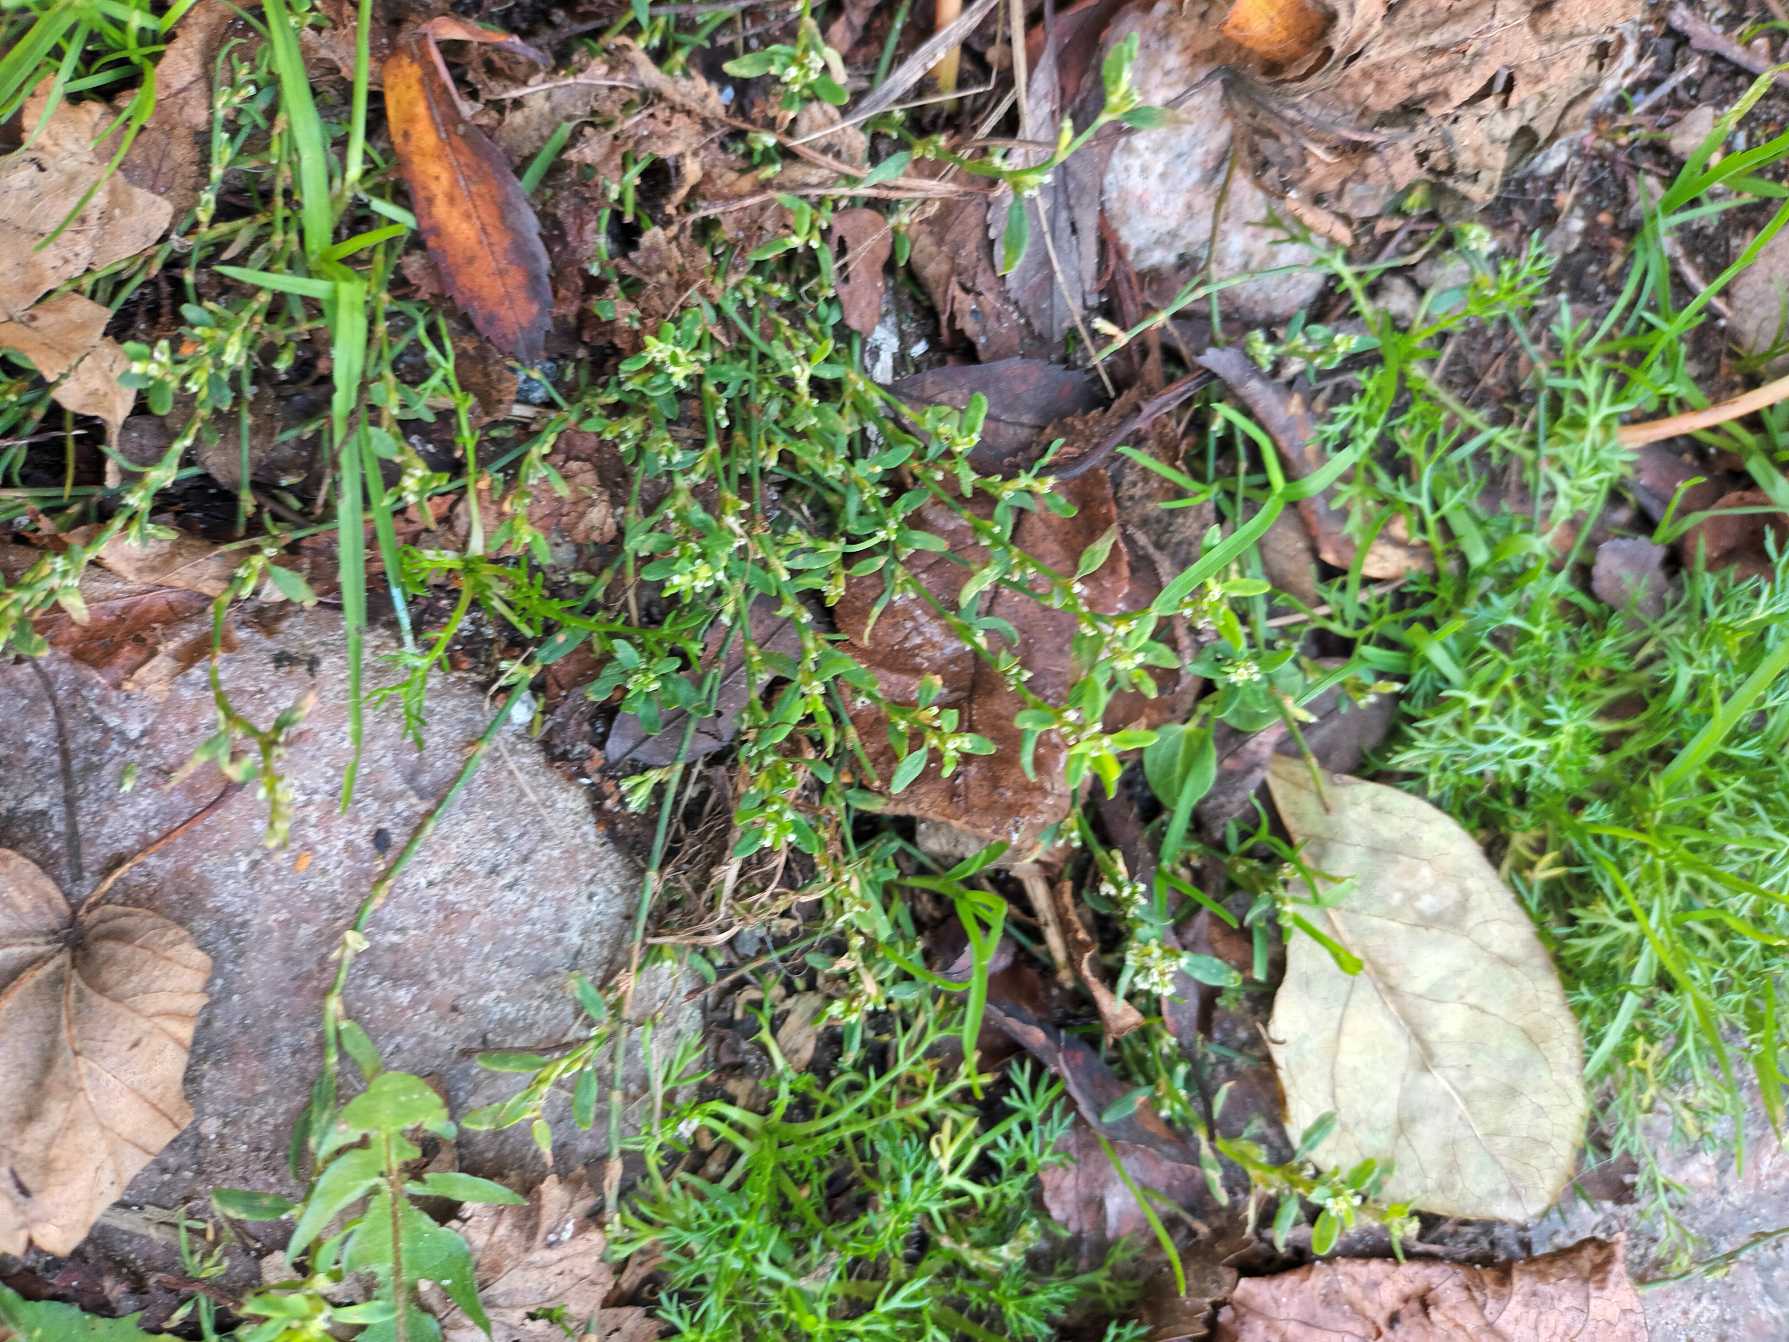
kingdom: Plantae
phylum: Tracheophyta
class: Magnoliopsida
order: Caryophyllales
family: Polygonaceae
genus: Polygonum
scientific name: Polygonum arenastrum
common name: Liggende vej-pileurt
